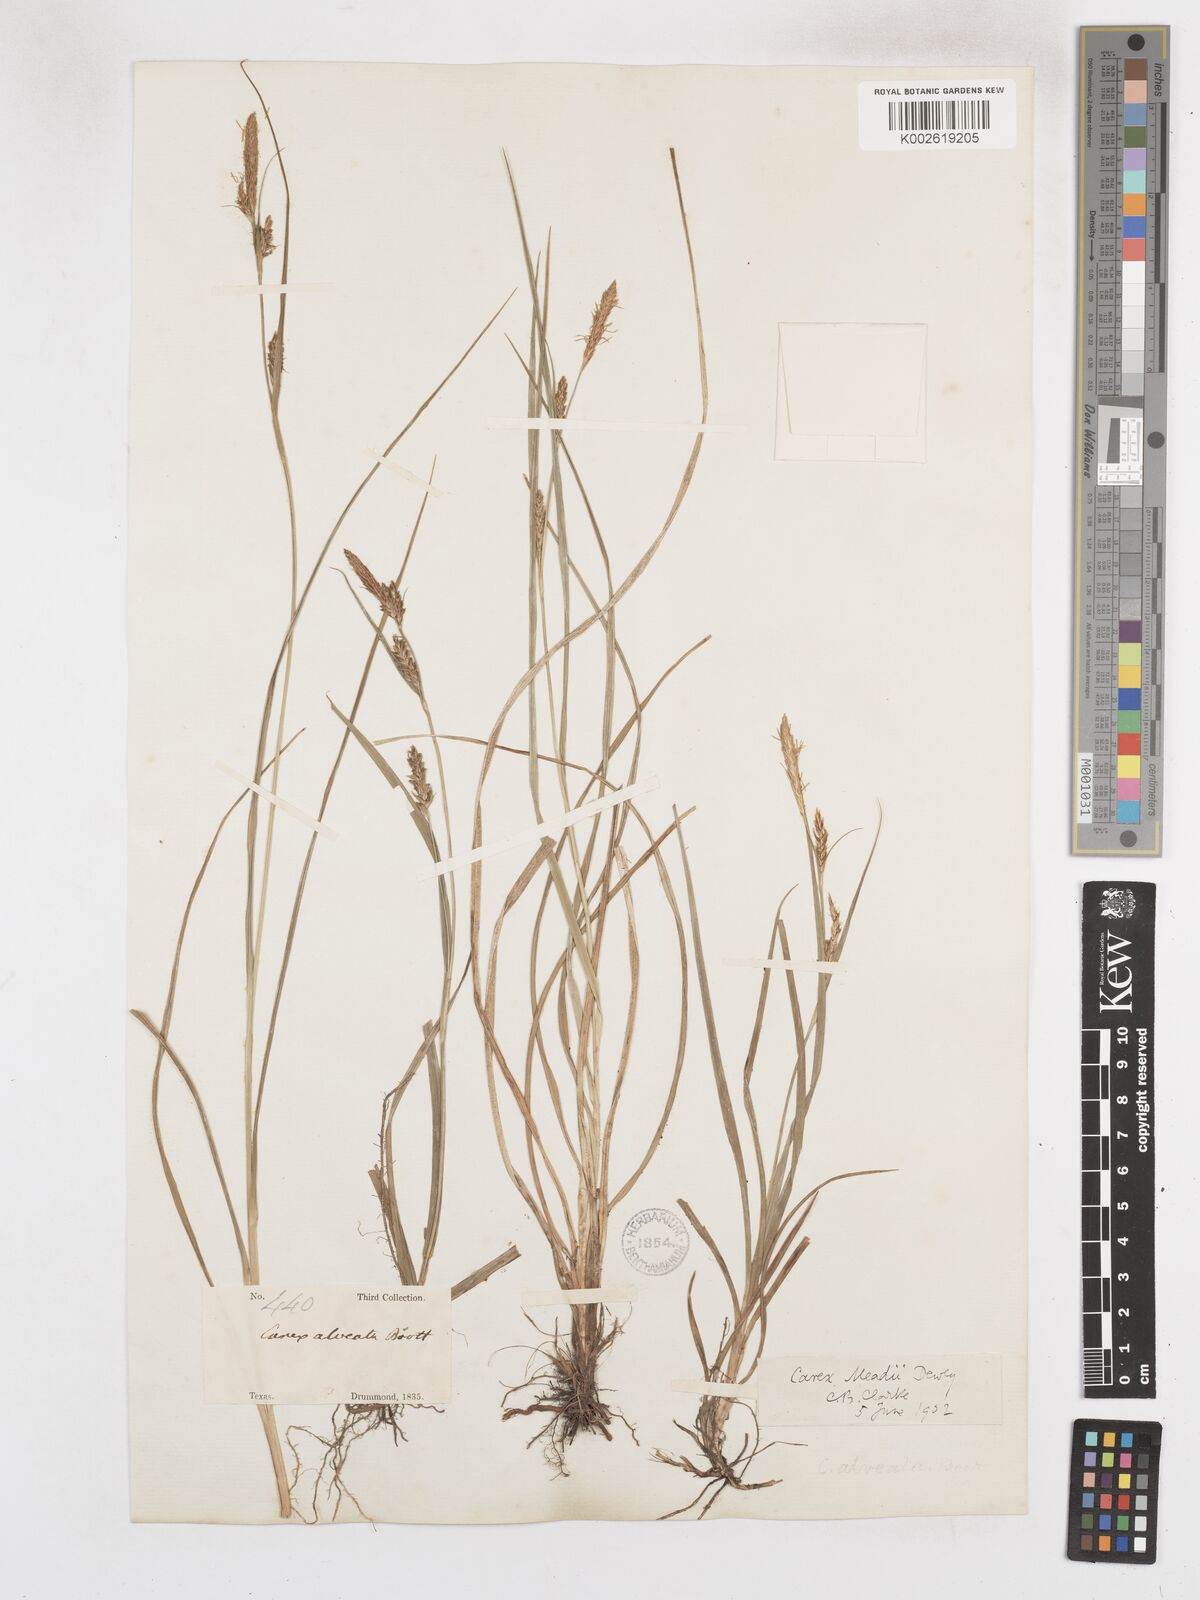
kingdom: Plantae
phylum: Tracheophyta
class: Liliopsida
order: Poales
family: Cyperaceae
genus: Carex
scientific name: Carex microdonta
